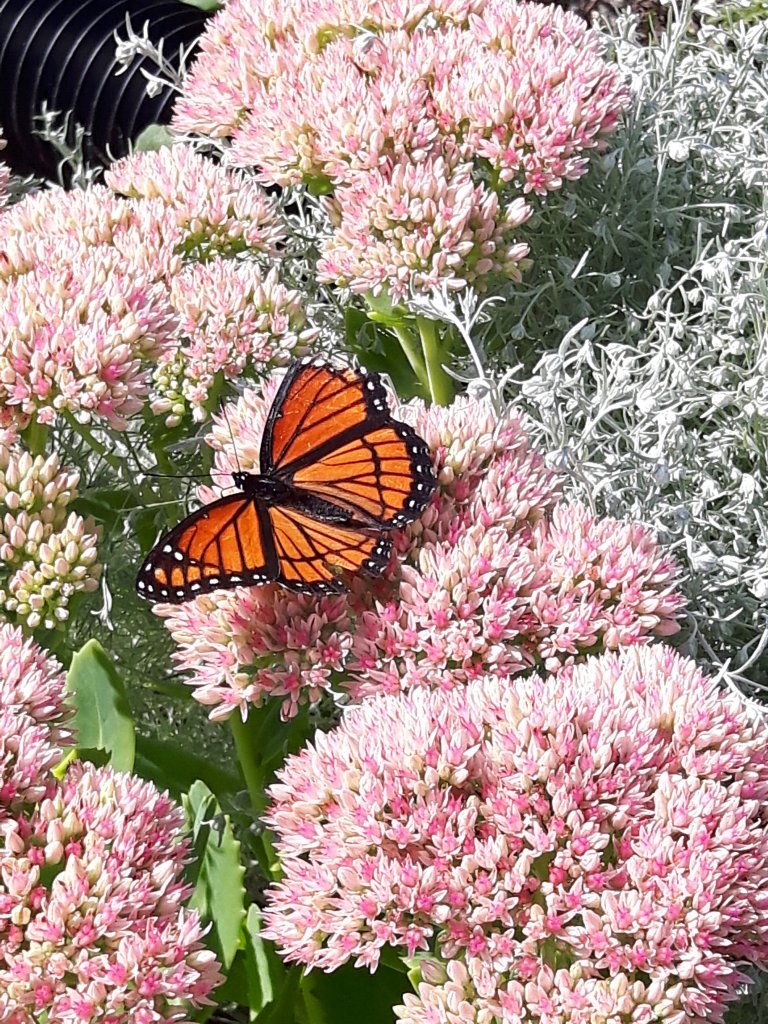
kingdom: Animalia
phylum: Arthropoda
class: Insecta
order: Lepidoptera
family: Nymphalidae
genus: Limenitis
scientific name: Limenitis archippus
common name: Viceroy
